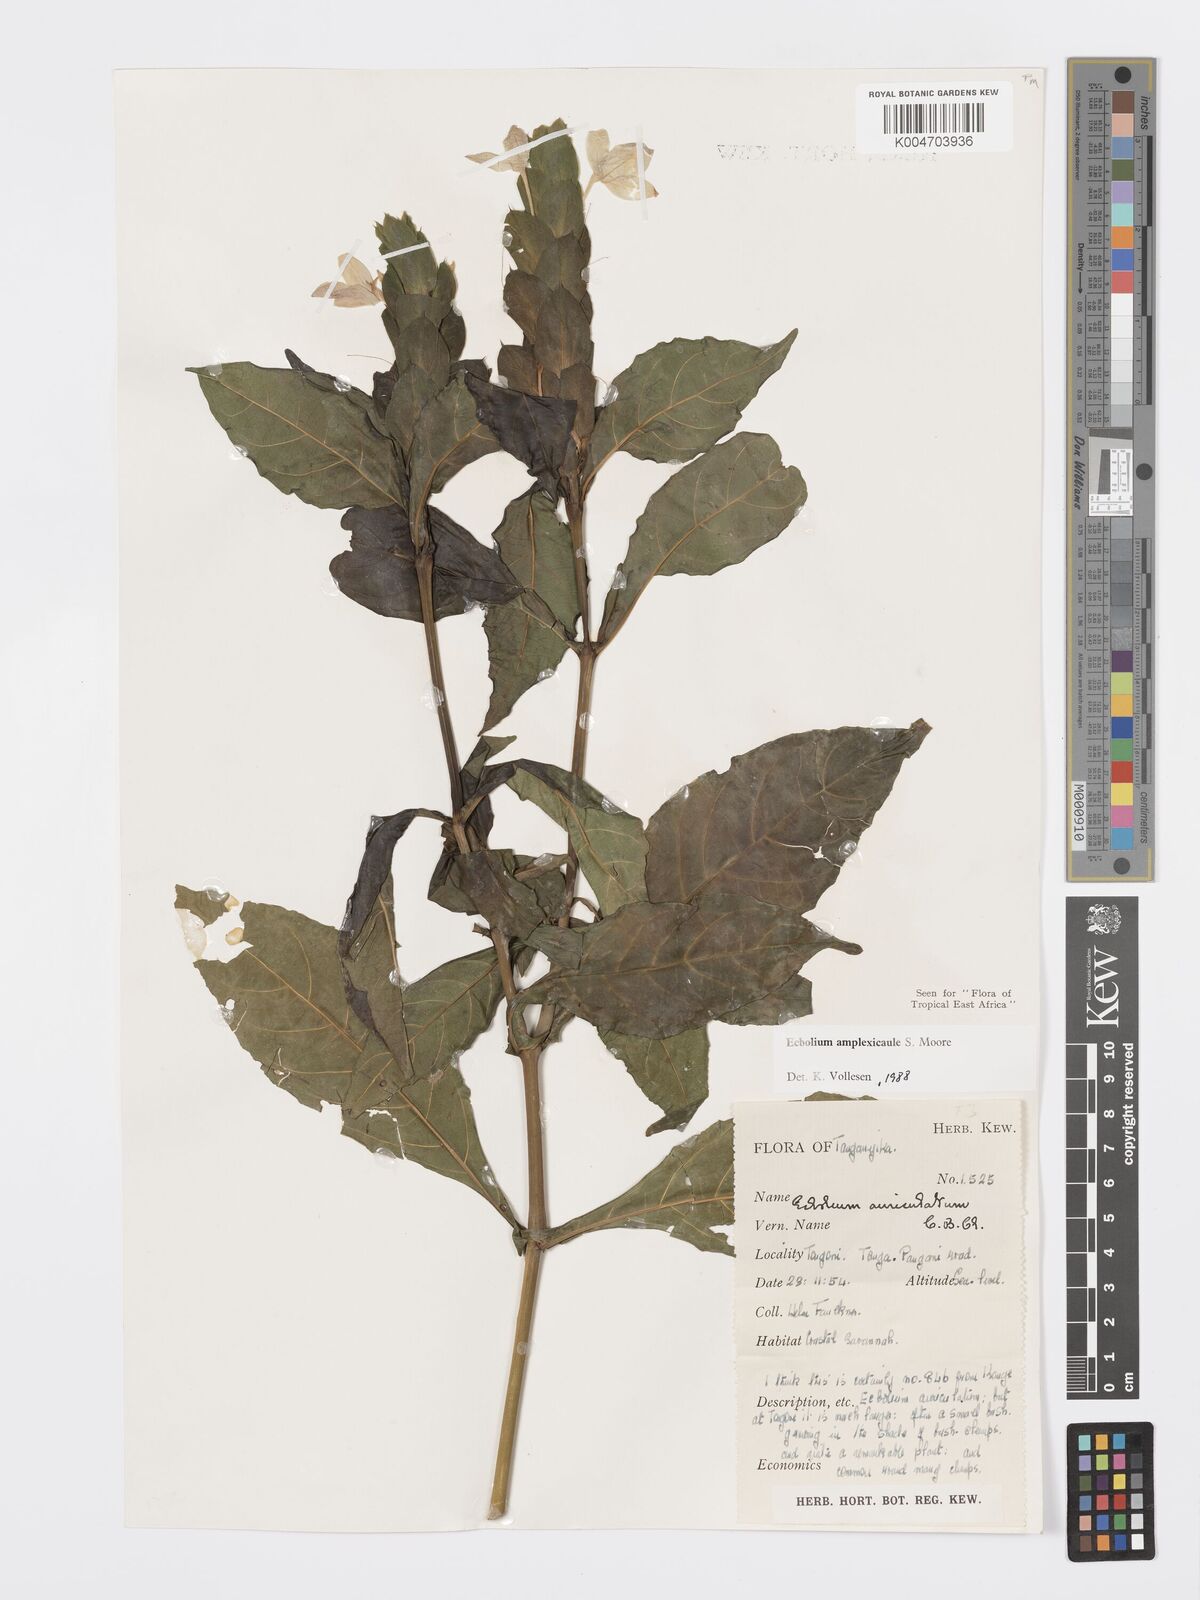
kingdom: Plantae
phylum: Tracheophyta
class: Magnoliopsida
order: Lamiales
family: Acanthaceae
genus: Ecbolium
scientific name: Ecbolium amplexicaule
